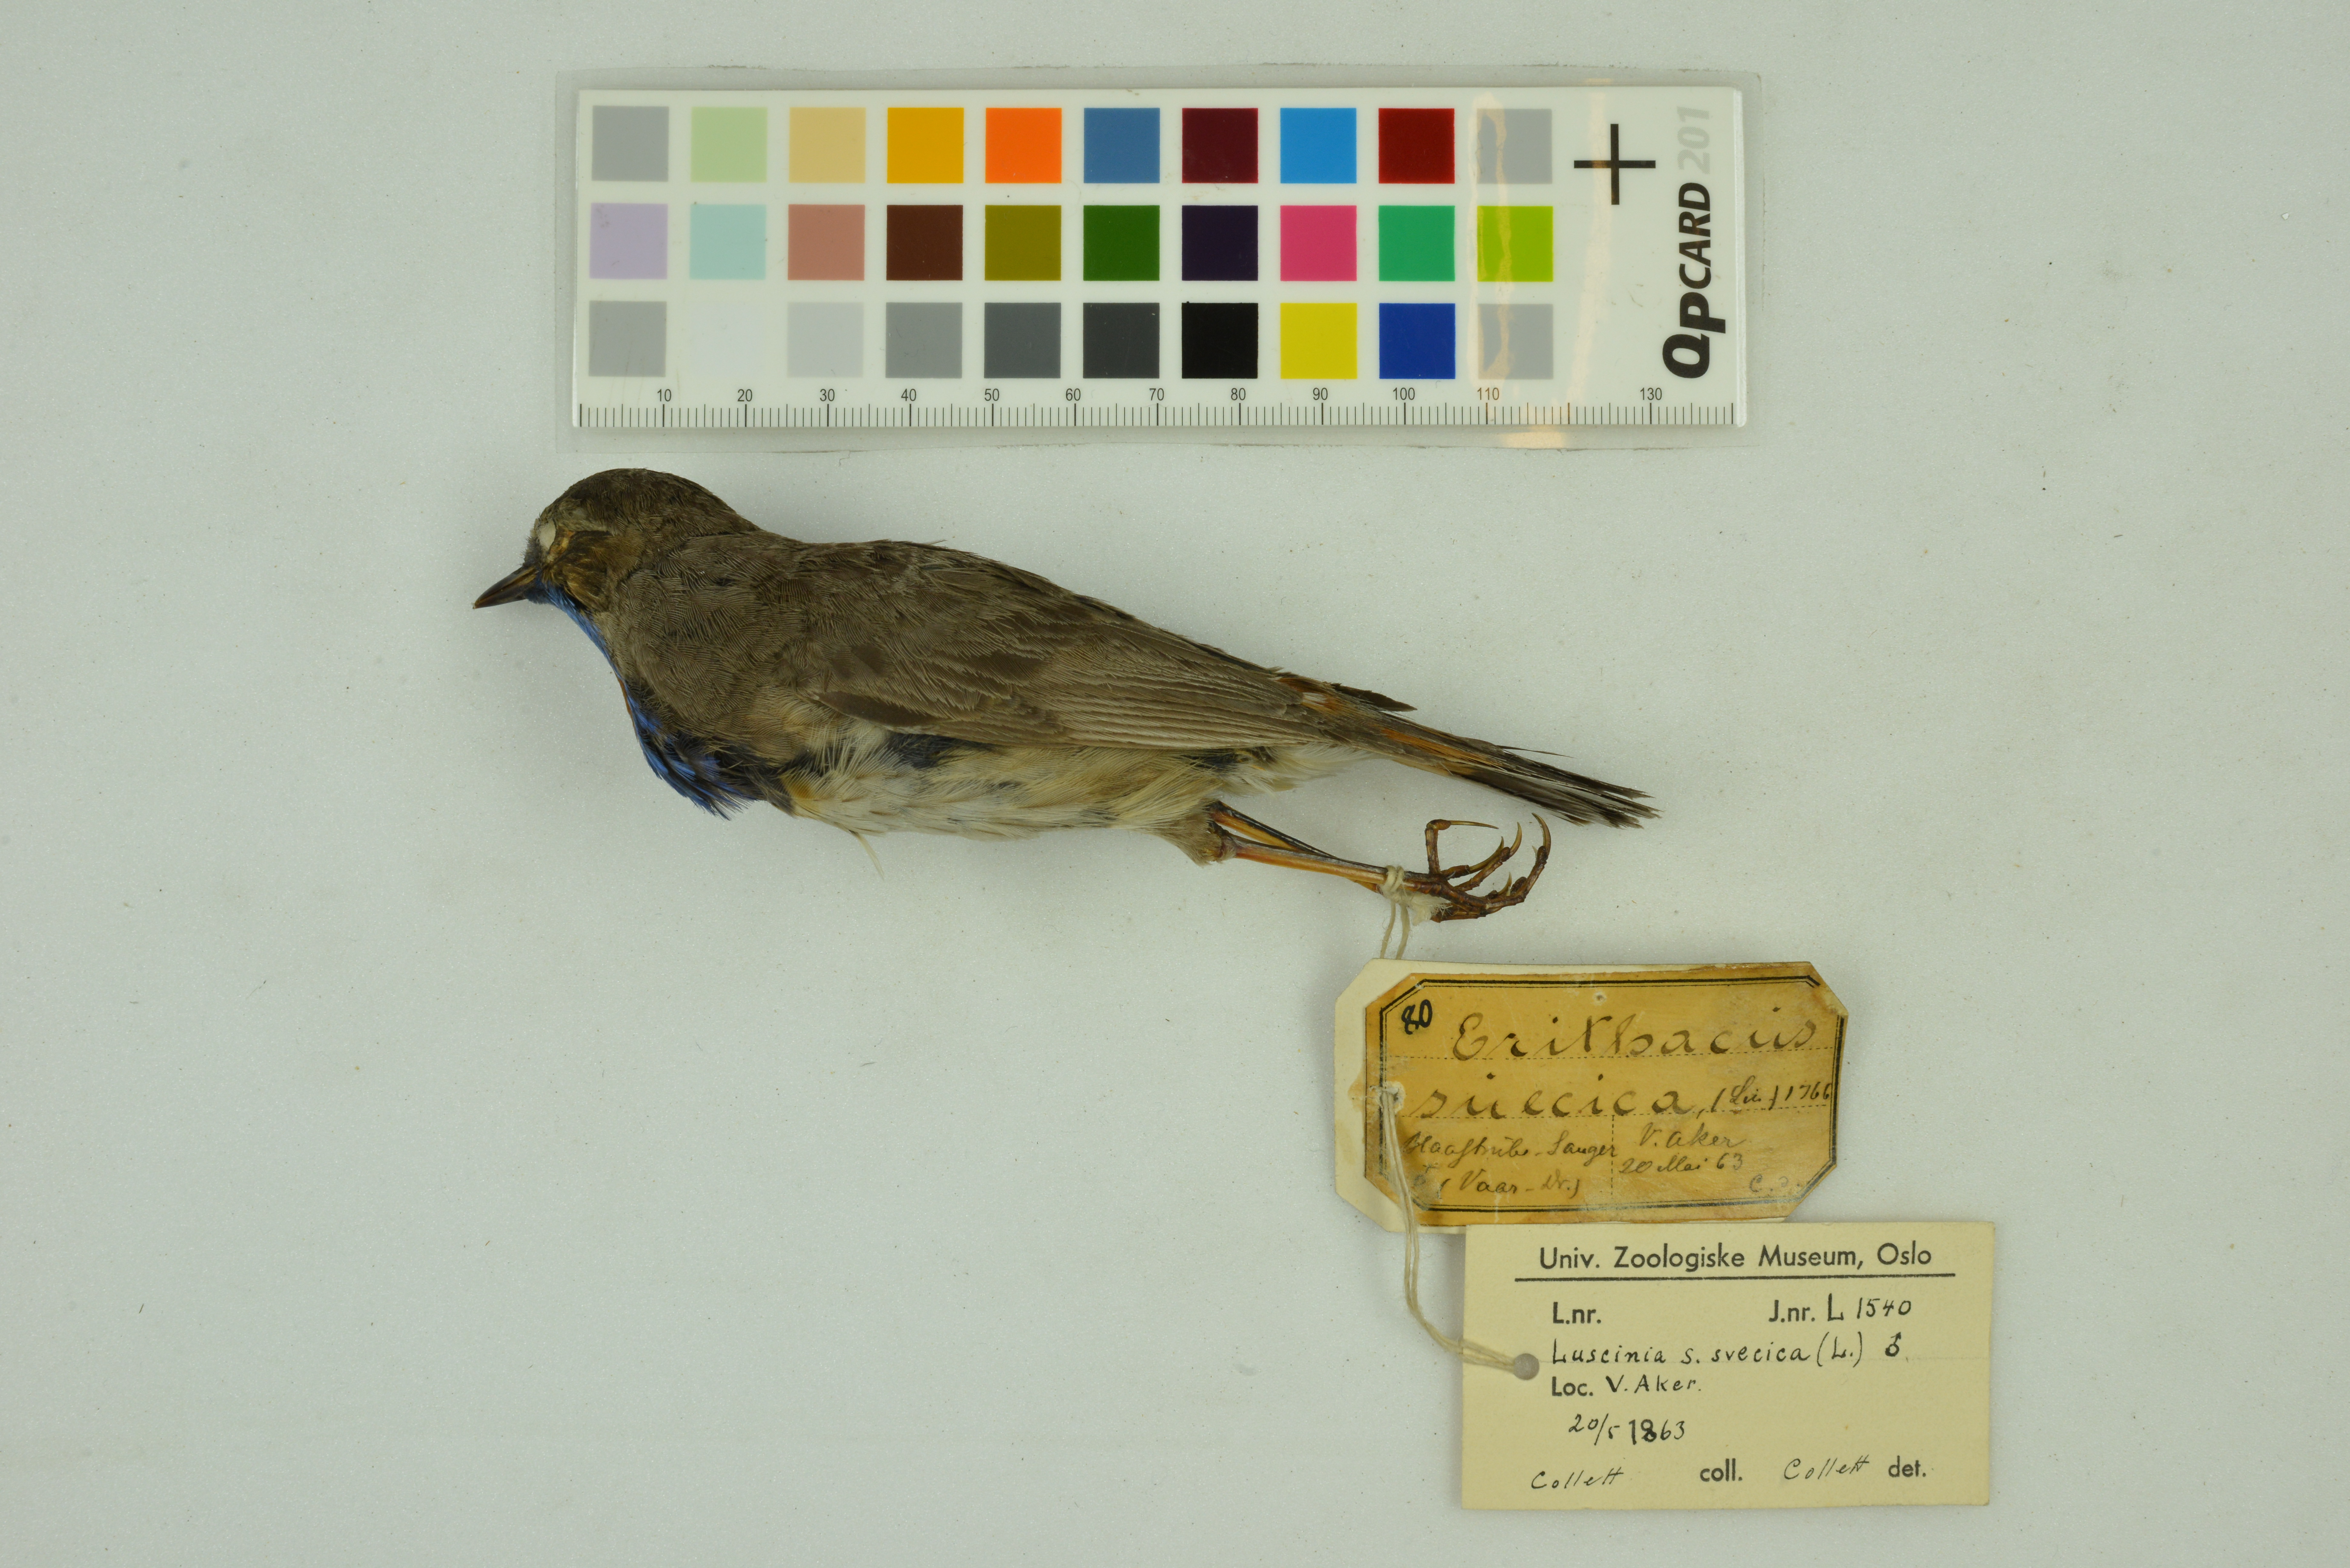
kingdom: Animalia
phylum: Chordata
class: Aves
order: Passeriformes
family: Muscicapidae
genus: Luscinia
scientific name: Luscinia svecica
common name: Bluethroat
